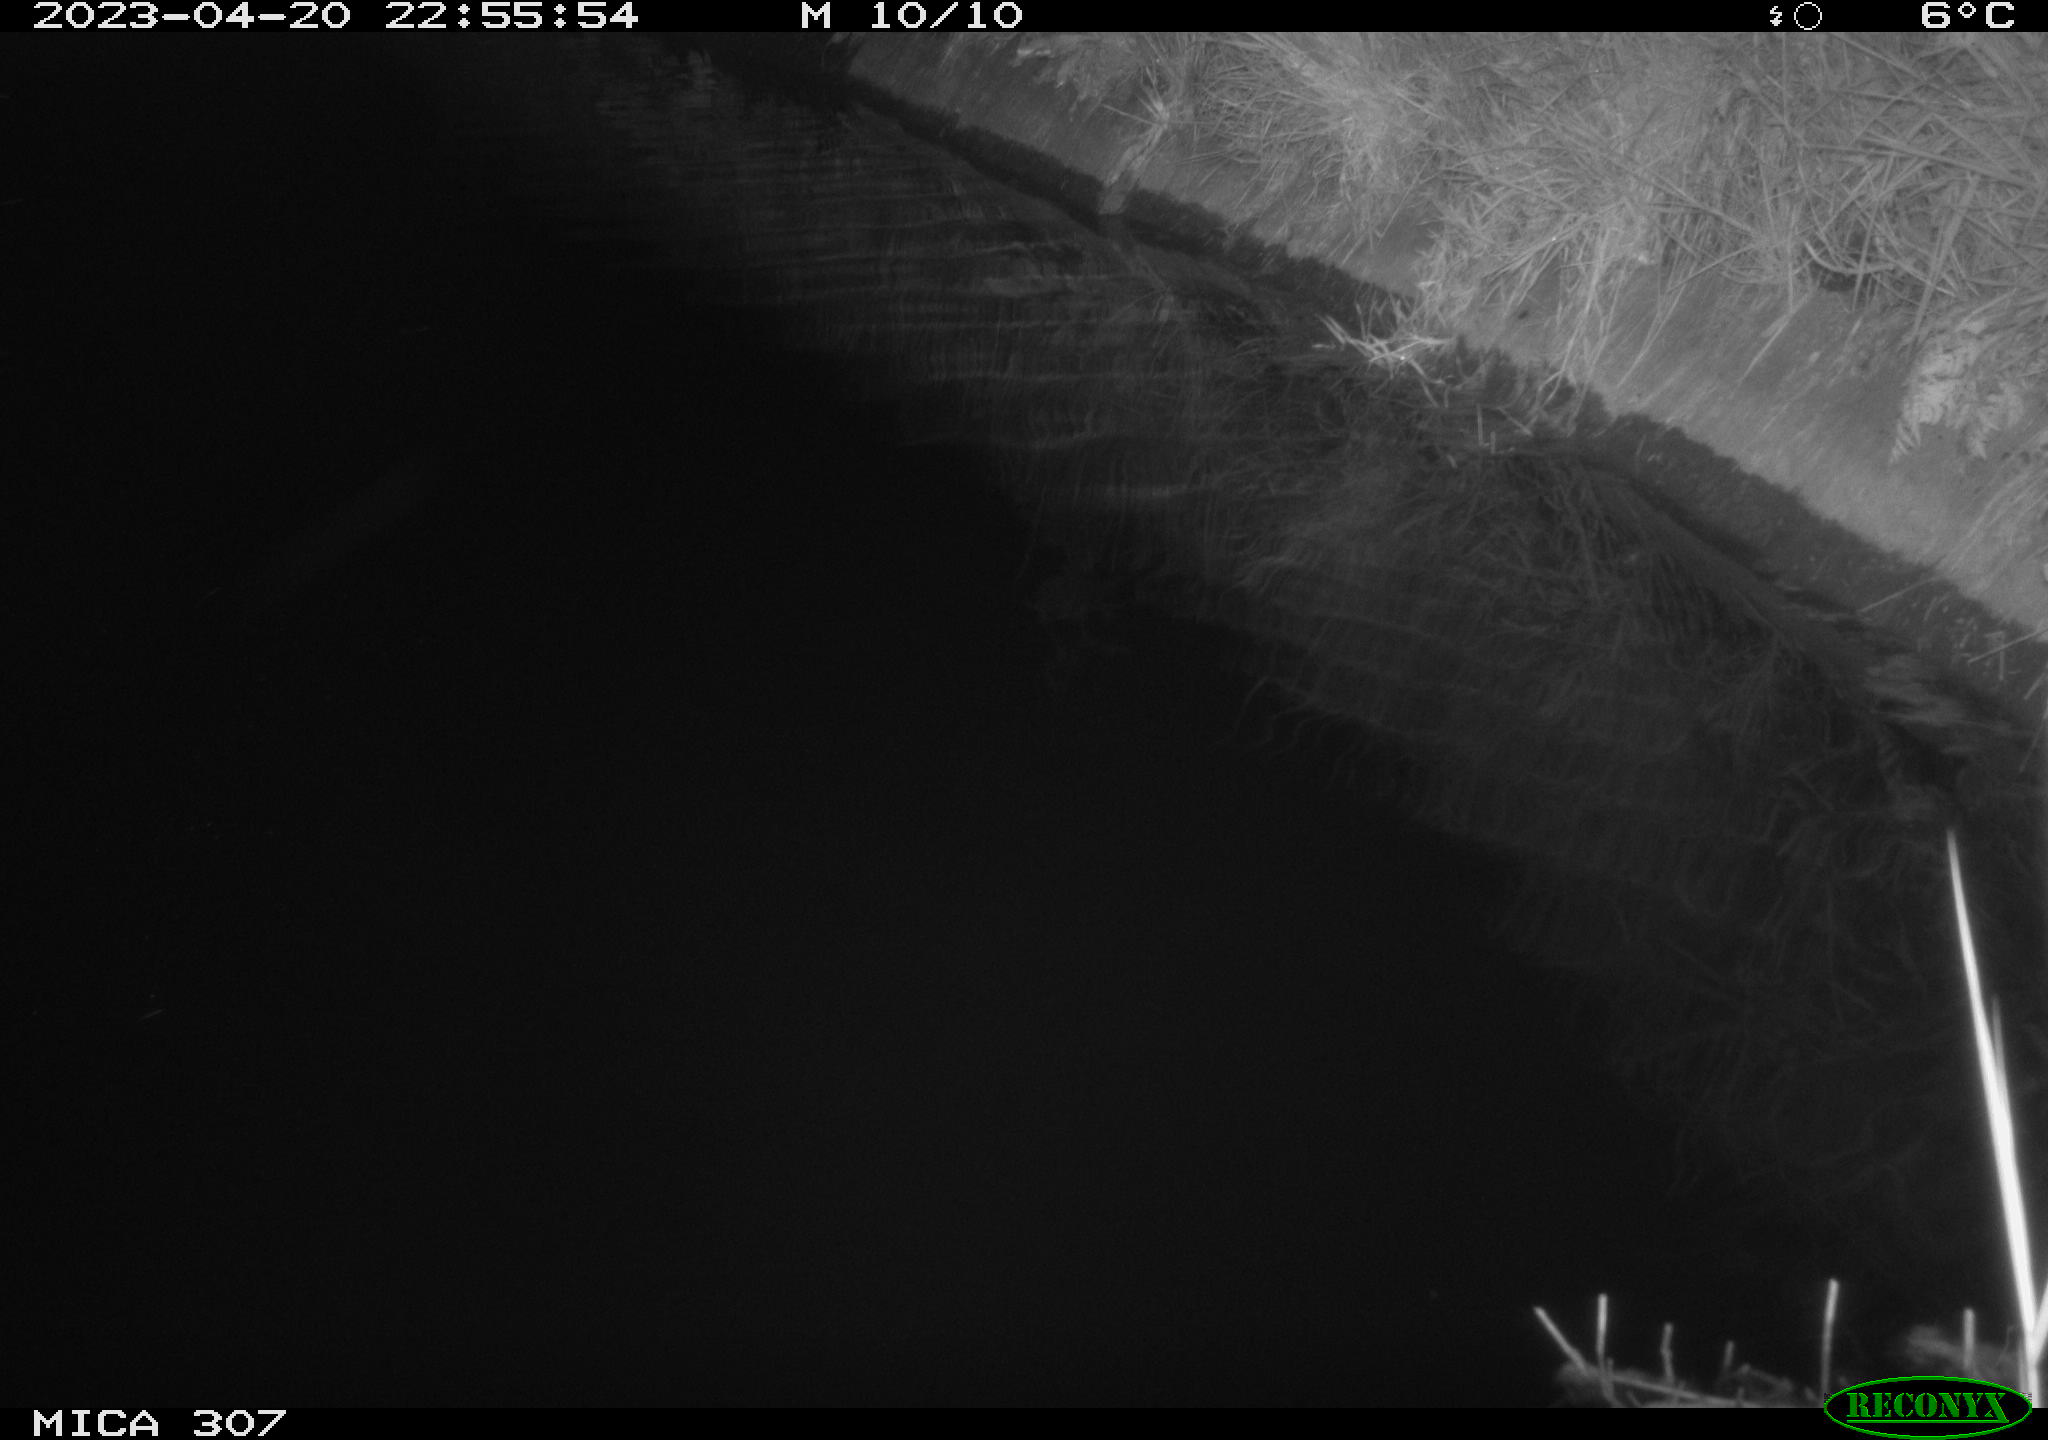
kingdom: Animalia
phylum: Chordata
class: Aves
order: Anseriformes
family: Anatidae
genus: Anas
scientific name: Anas
